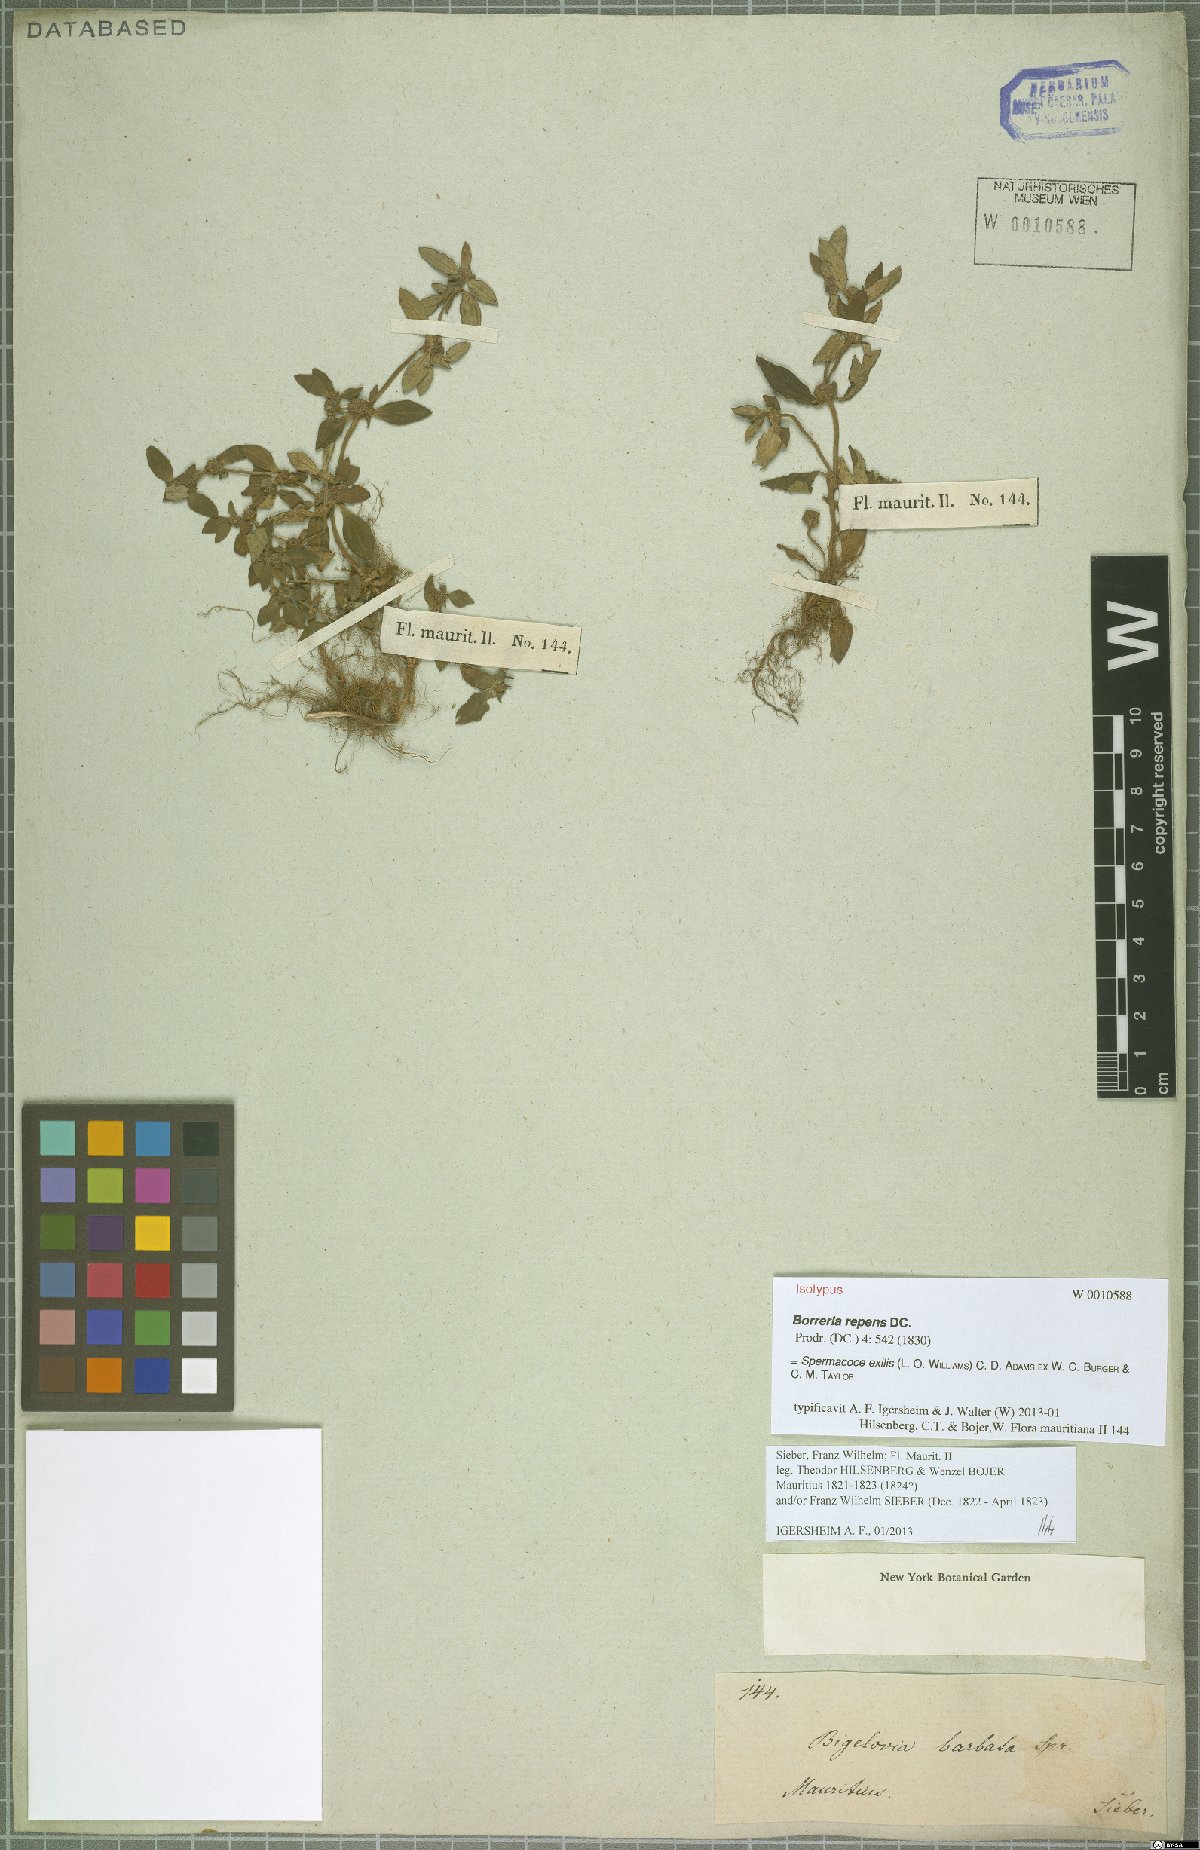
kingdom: Plantae
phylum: Tracheophyta
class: Magnoliopsida
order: Gentianales
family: Rubiaceae
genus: Spermacoce
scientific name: Spermacoce exilis
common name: Pacific false buttonweed
